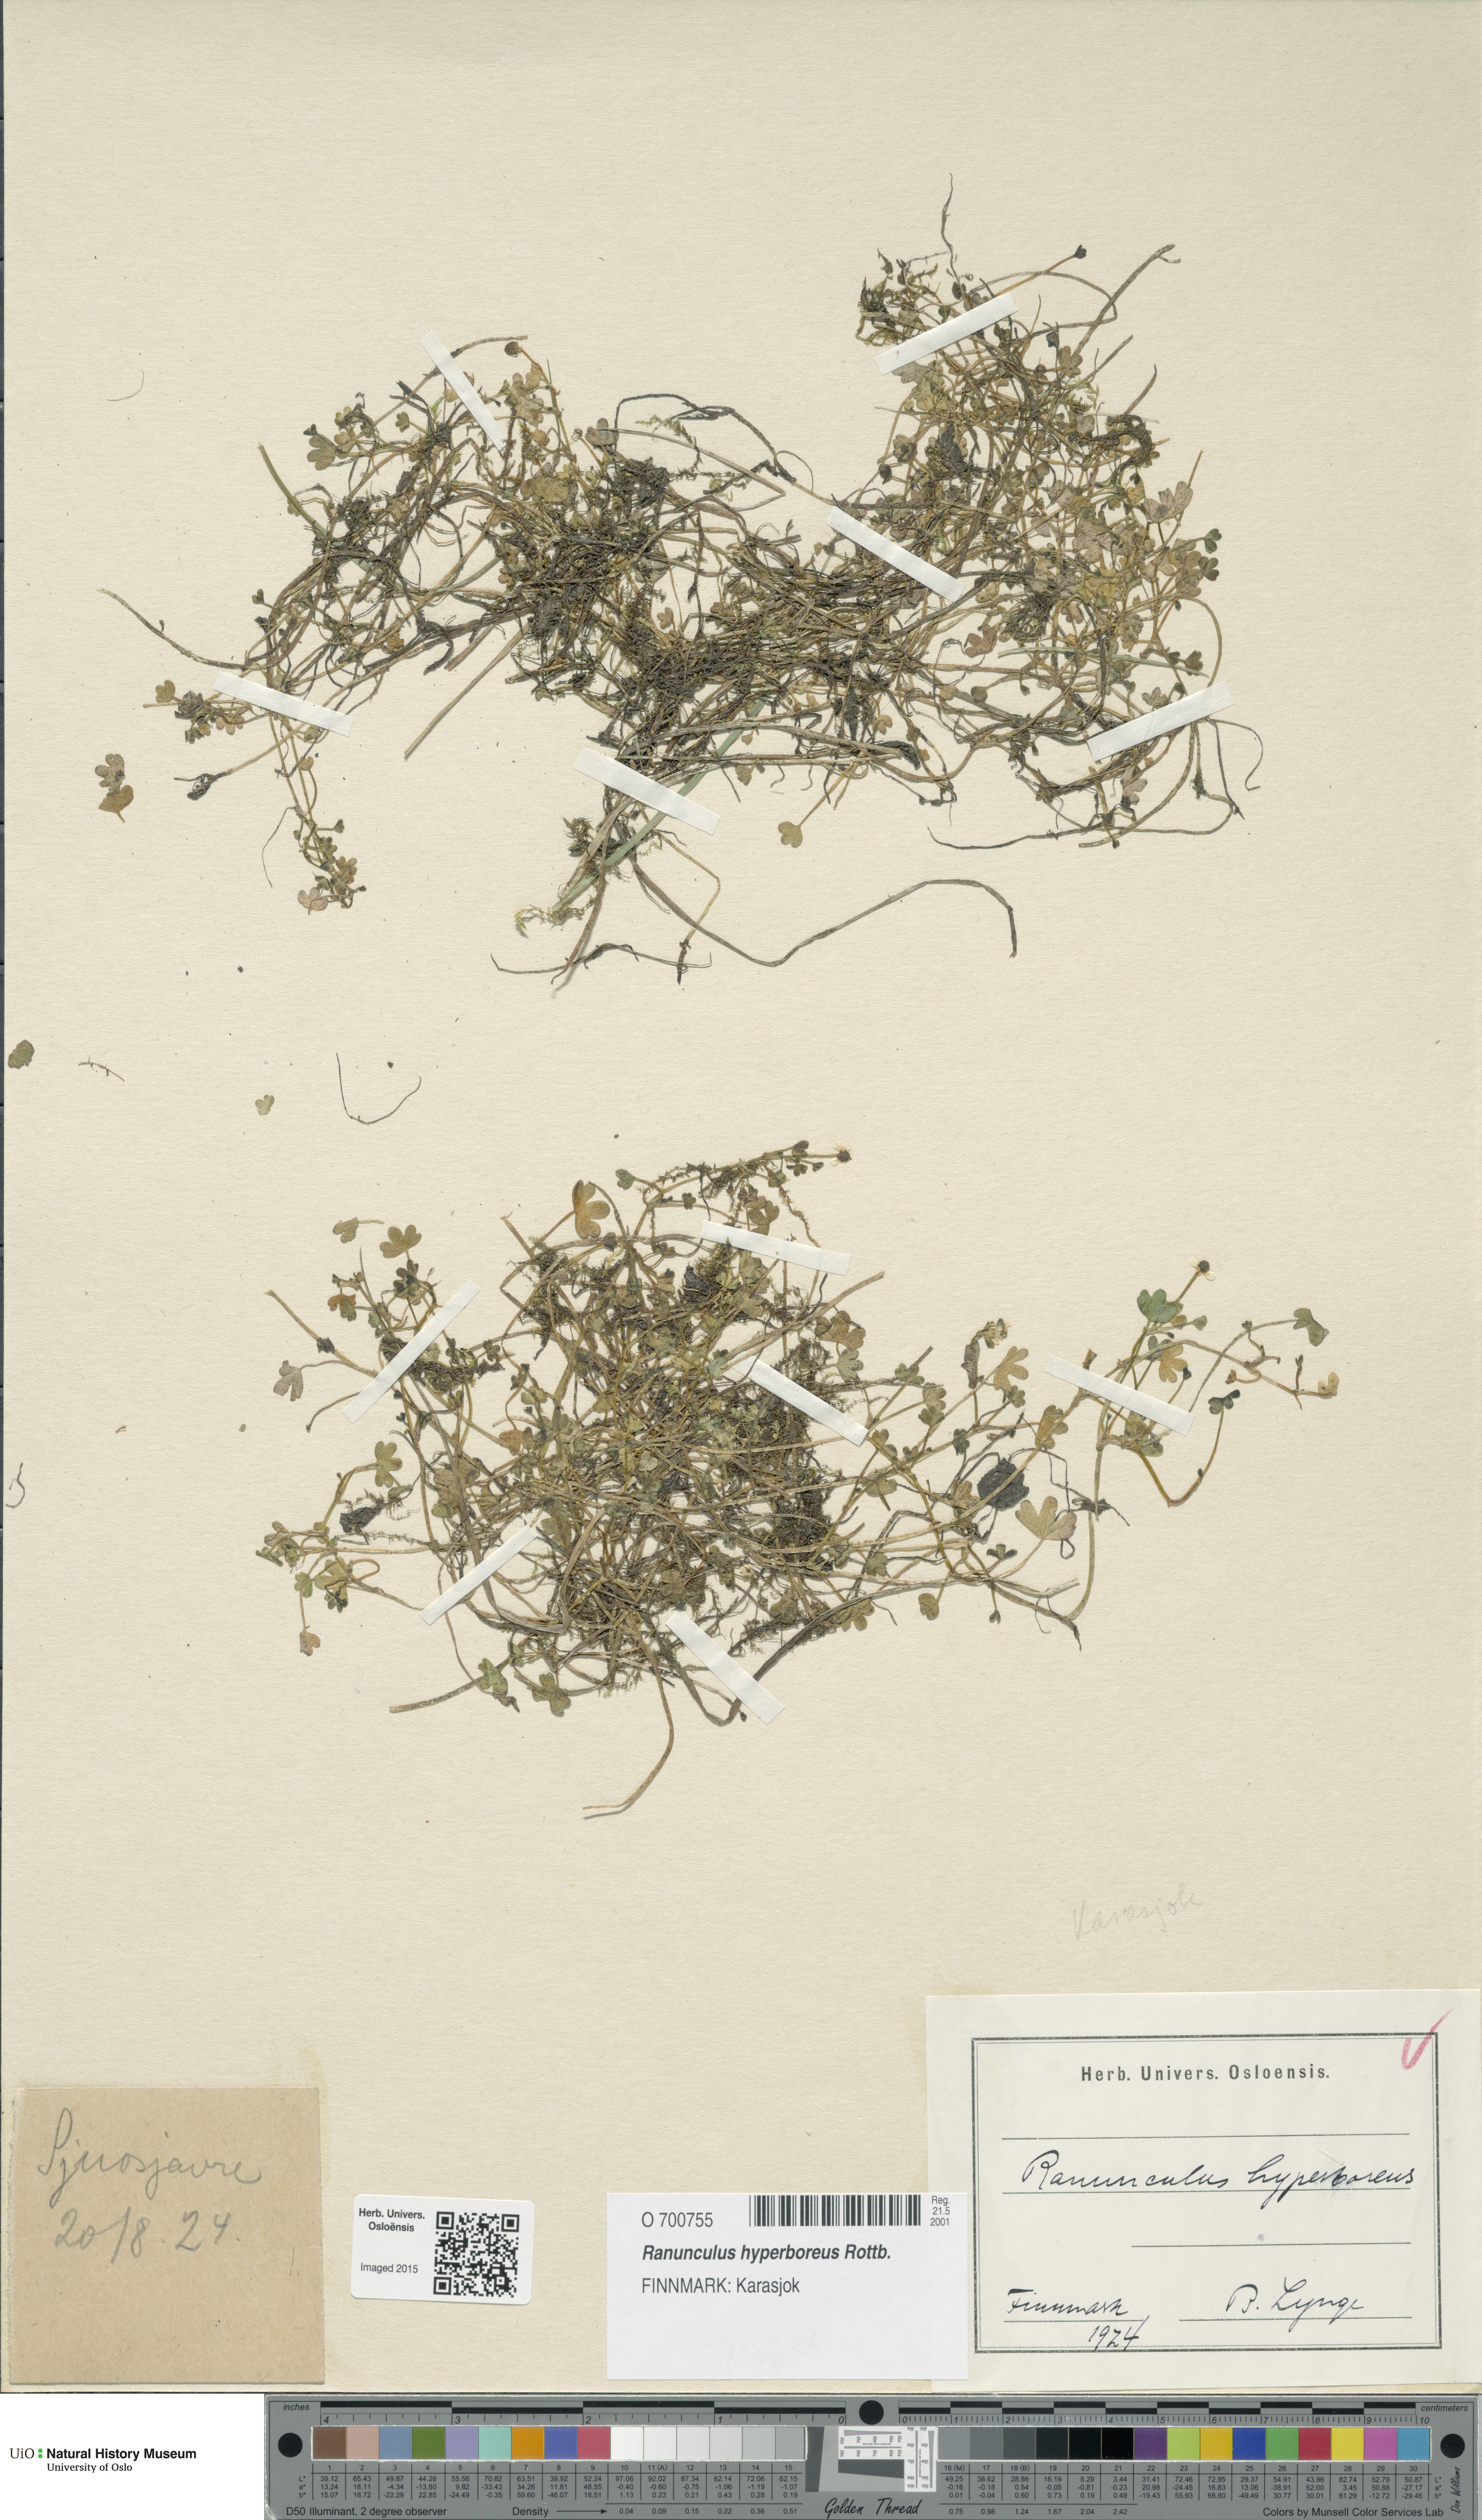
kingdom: Plantae
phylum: Tracheophyta
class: Magnoliopsida
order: Ranunculales
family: Ranunculaceae
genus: Ranunculus
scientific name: Ranunculus hyperboreus
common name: Arctic buttercup
